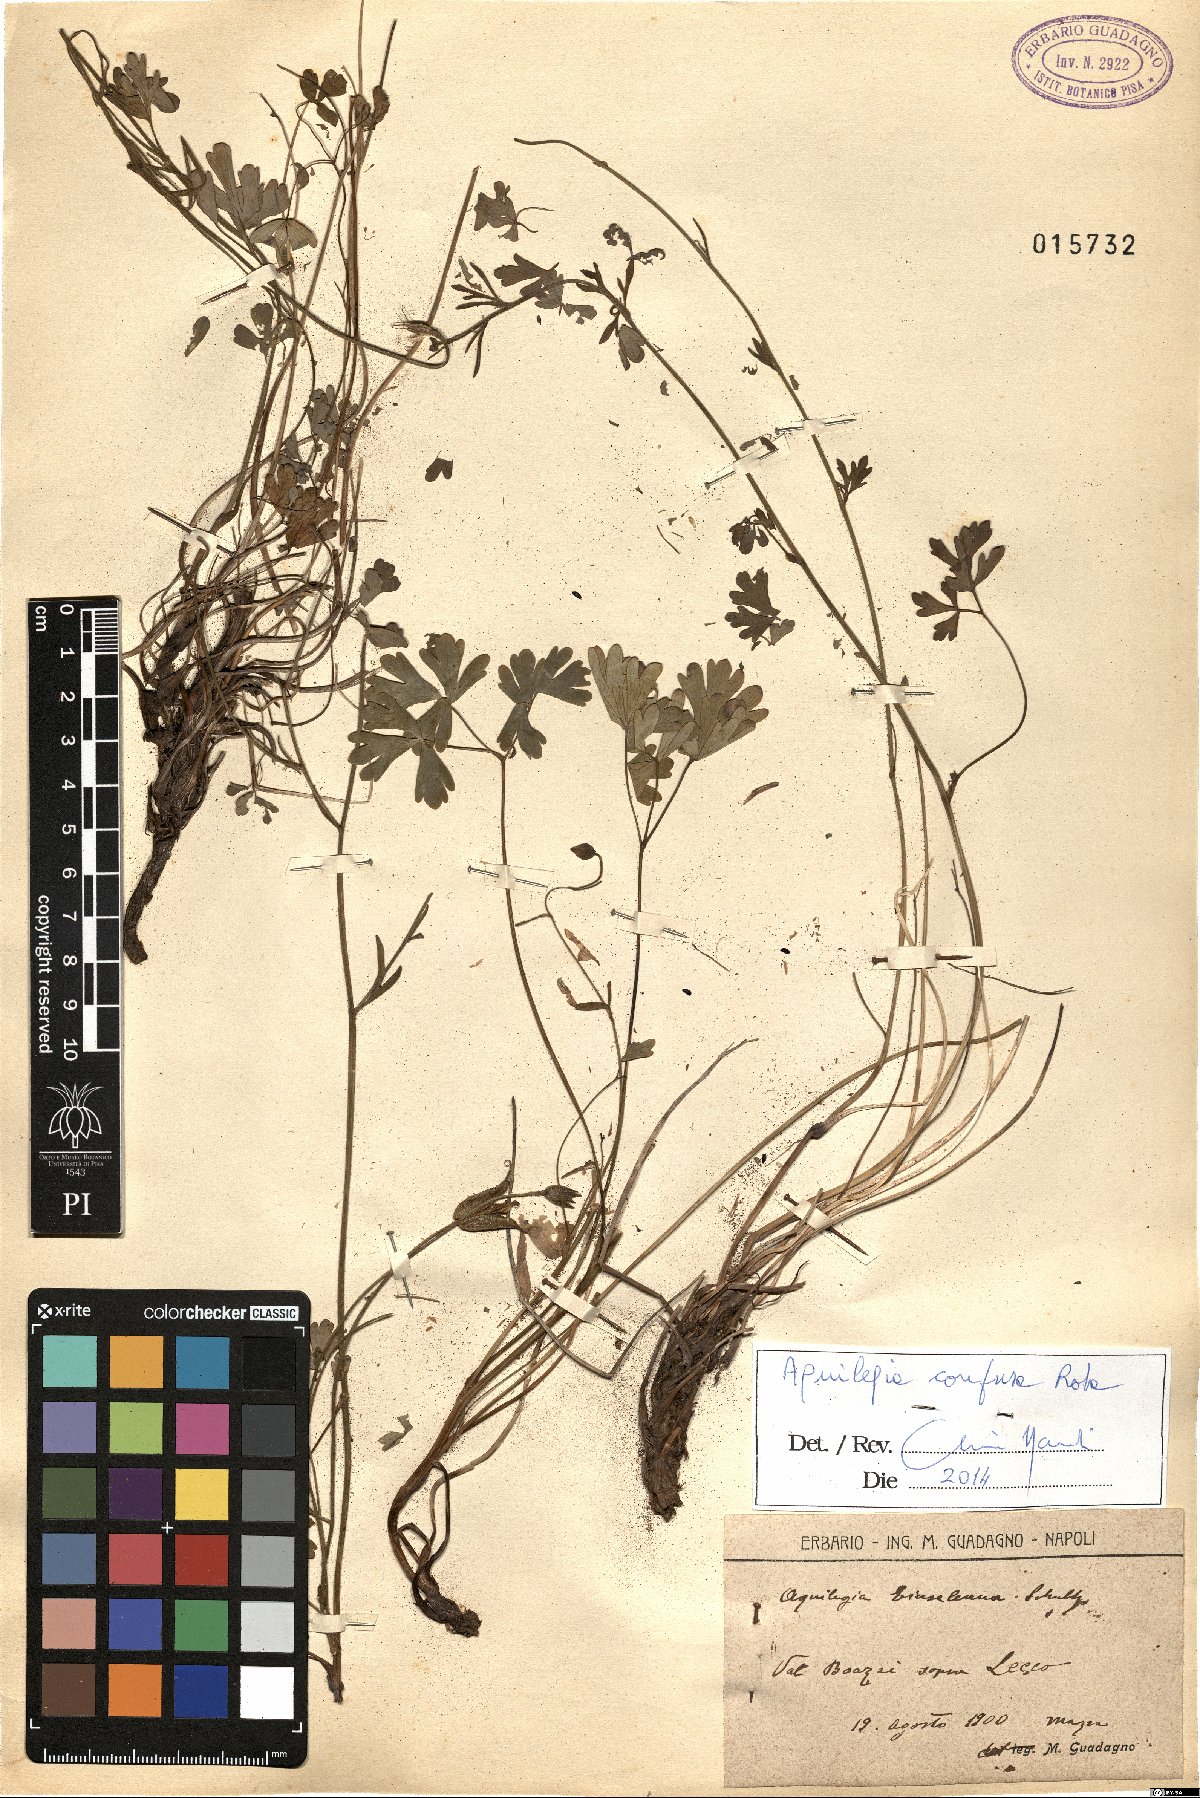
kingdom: Plantae
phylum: Tracheophyta
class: Magnoliopsida
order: Ranunculales
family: Ranunculaceae
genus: Aquilegia
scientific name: Aquilegia einseleana
